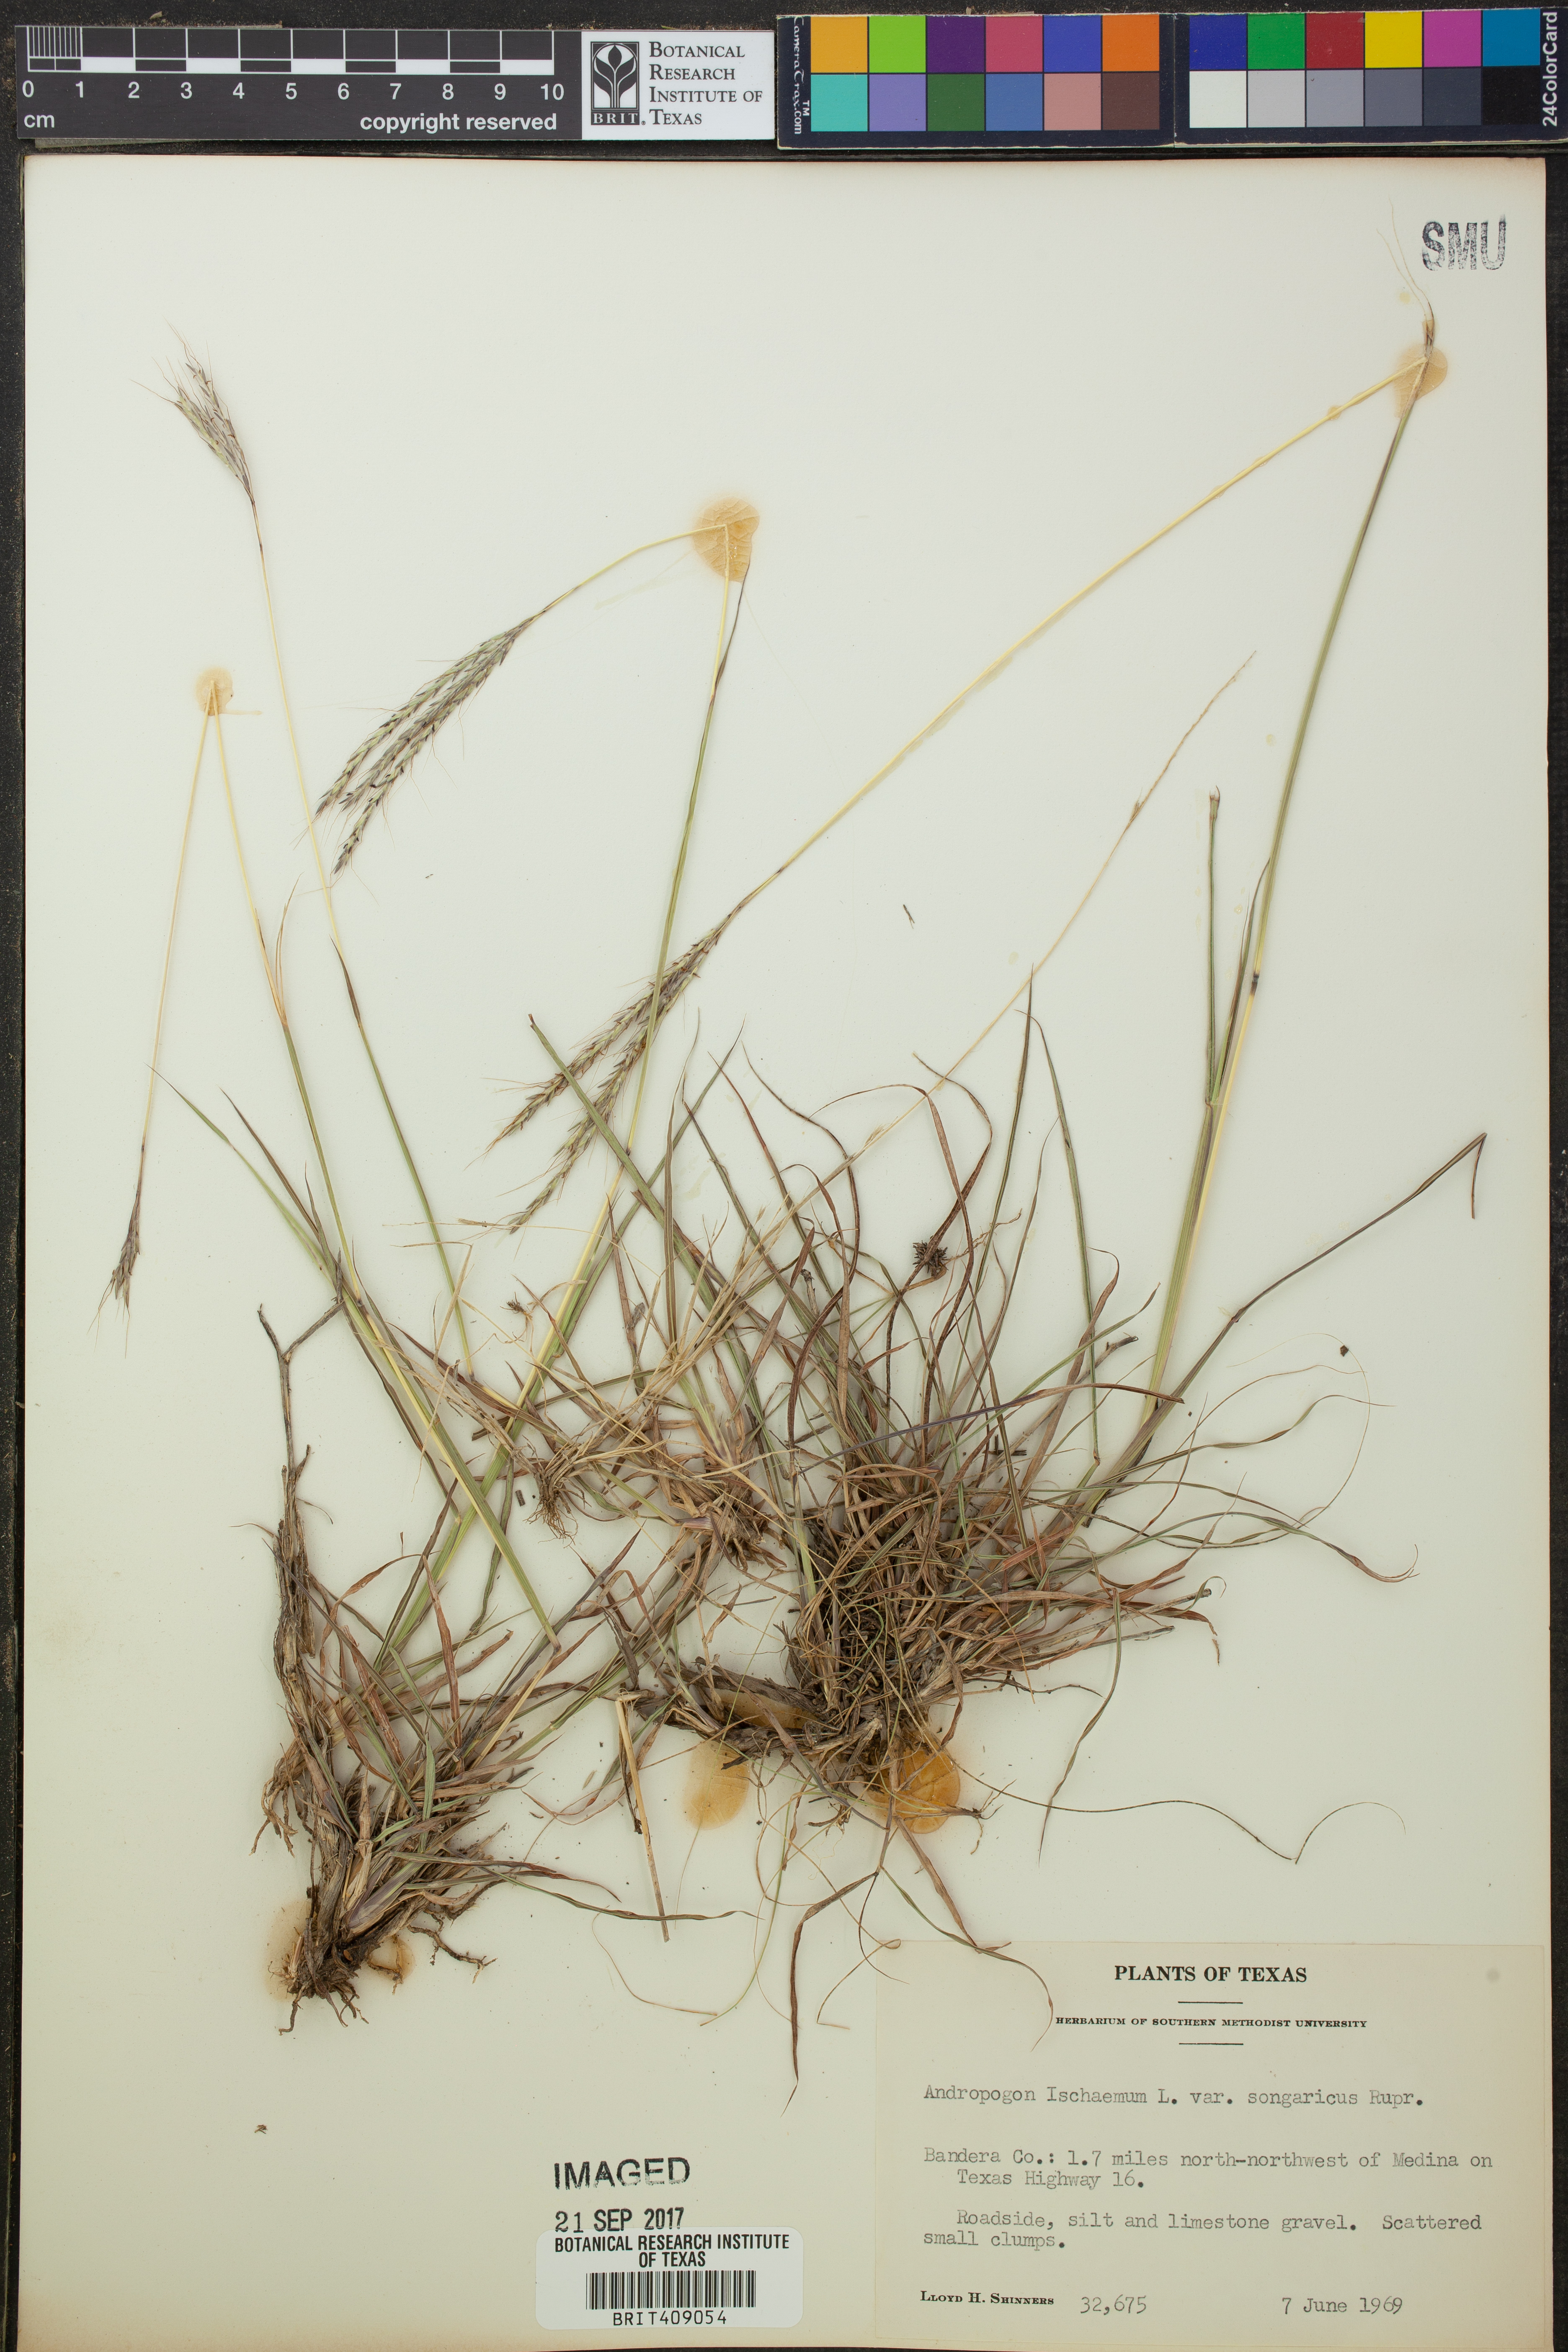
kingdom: Plantae
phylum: Tracheophyta
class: Liliopsida
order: Poales
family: Poaceae
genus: Bothriochloa
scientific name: Bothriochloa ischaemum
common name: Yellow bluestem
